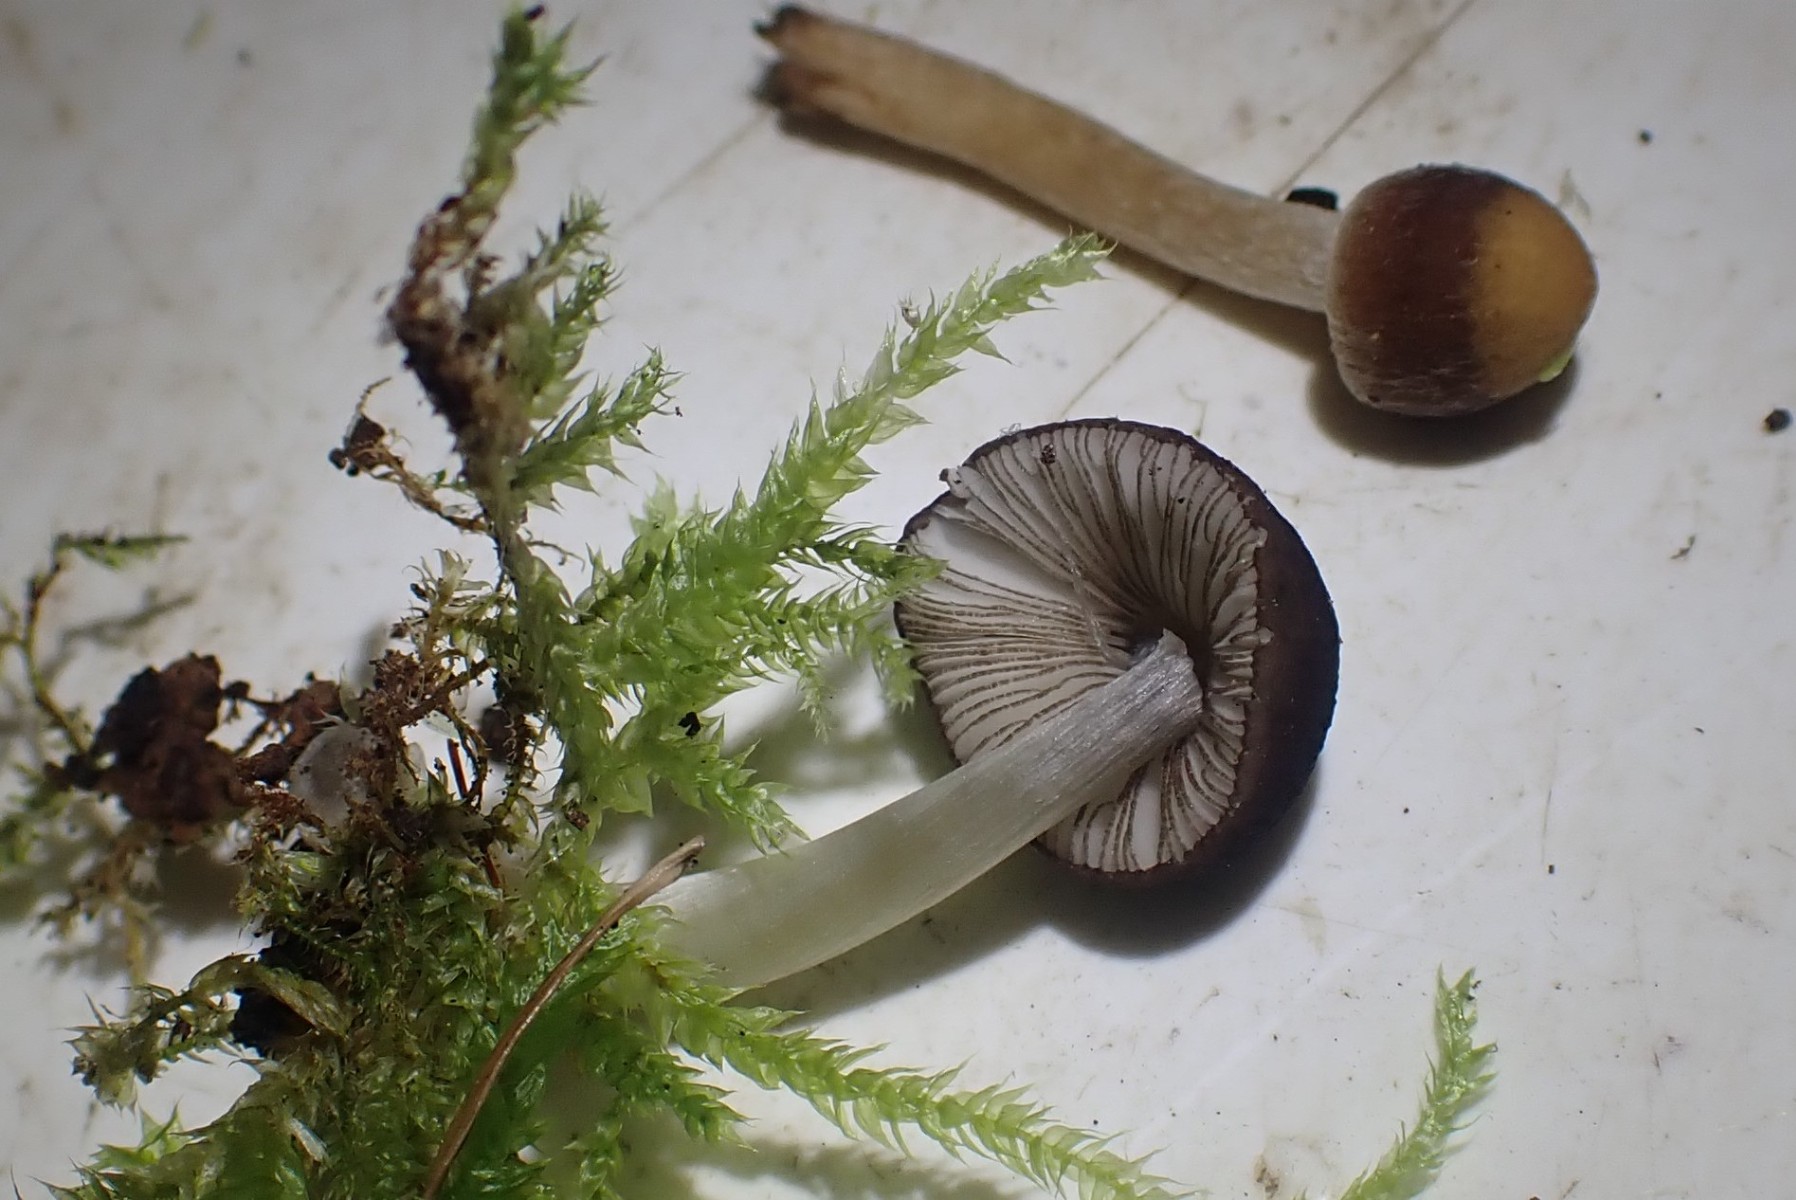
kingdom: Fungi
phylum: Basidiomycota
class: Agaricomycetes
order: Agaricales
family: Pluteaceae
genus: Pluteus
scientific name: Pluteus eludens
